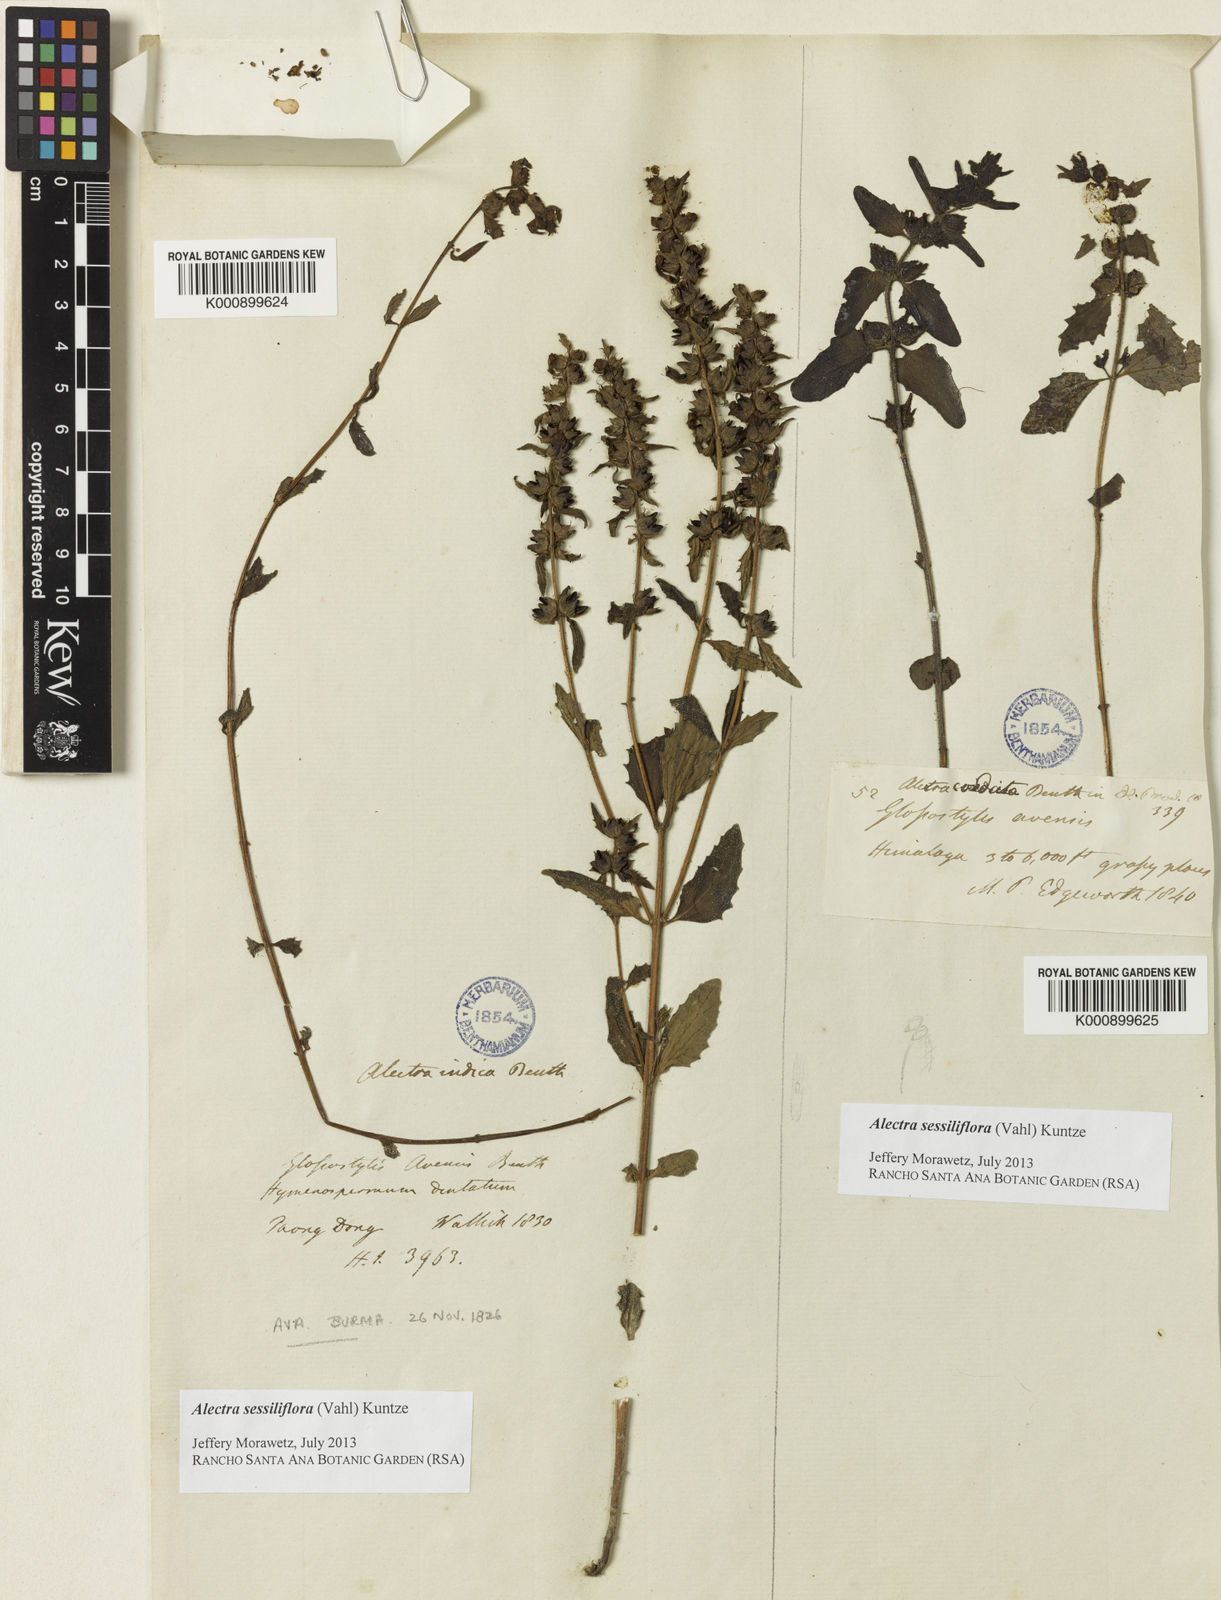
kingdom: Plantae
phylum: Tracheophyta
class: Magnoliopsida
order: Lamiales
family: Orobanchaceae
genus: Alectra
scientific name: Alectra sessiliflora
